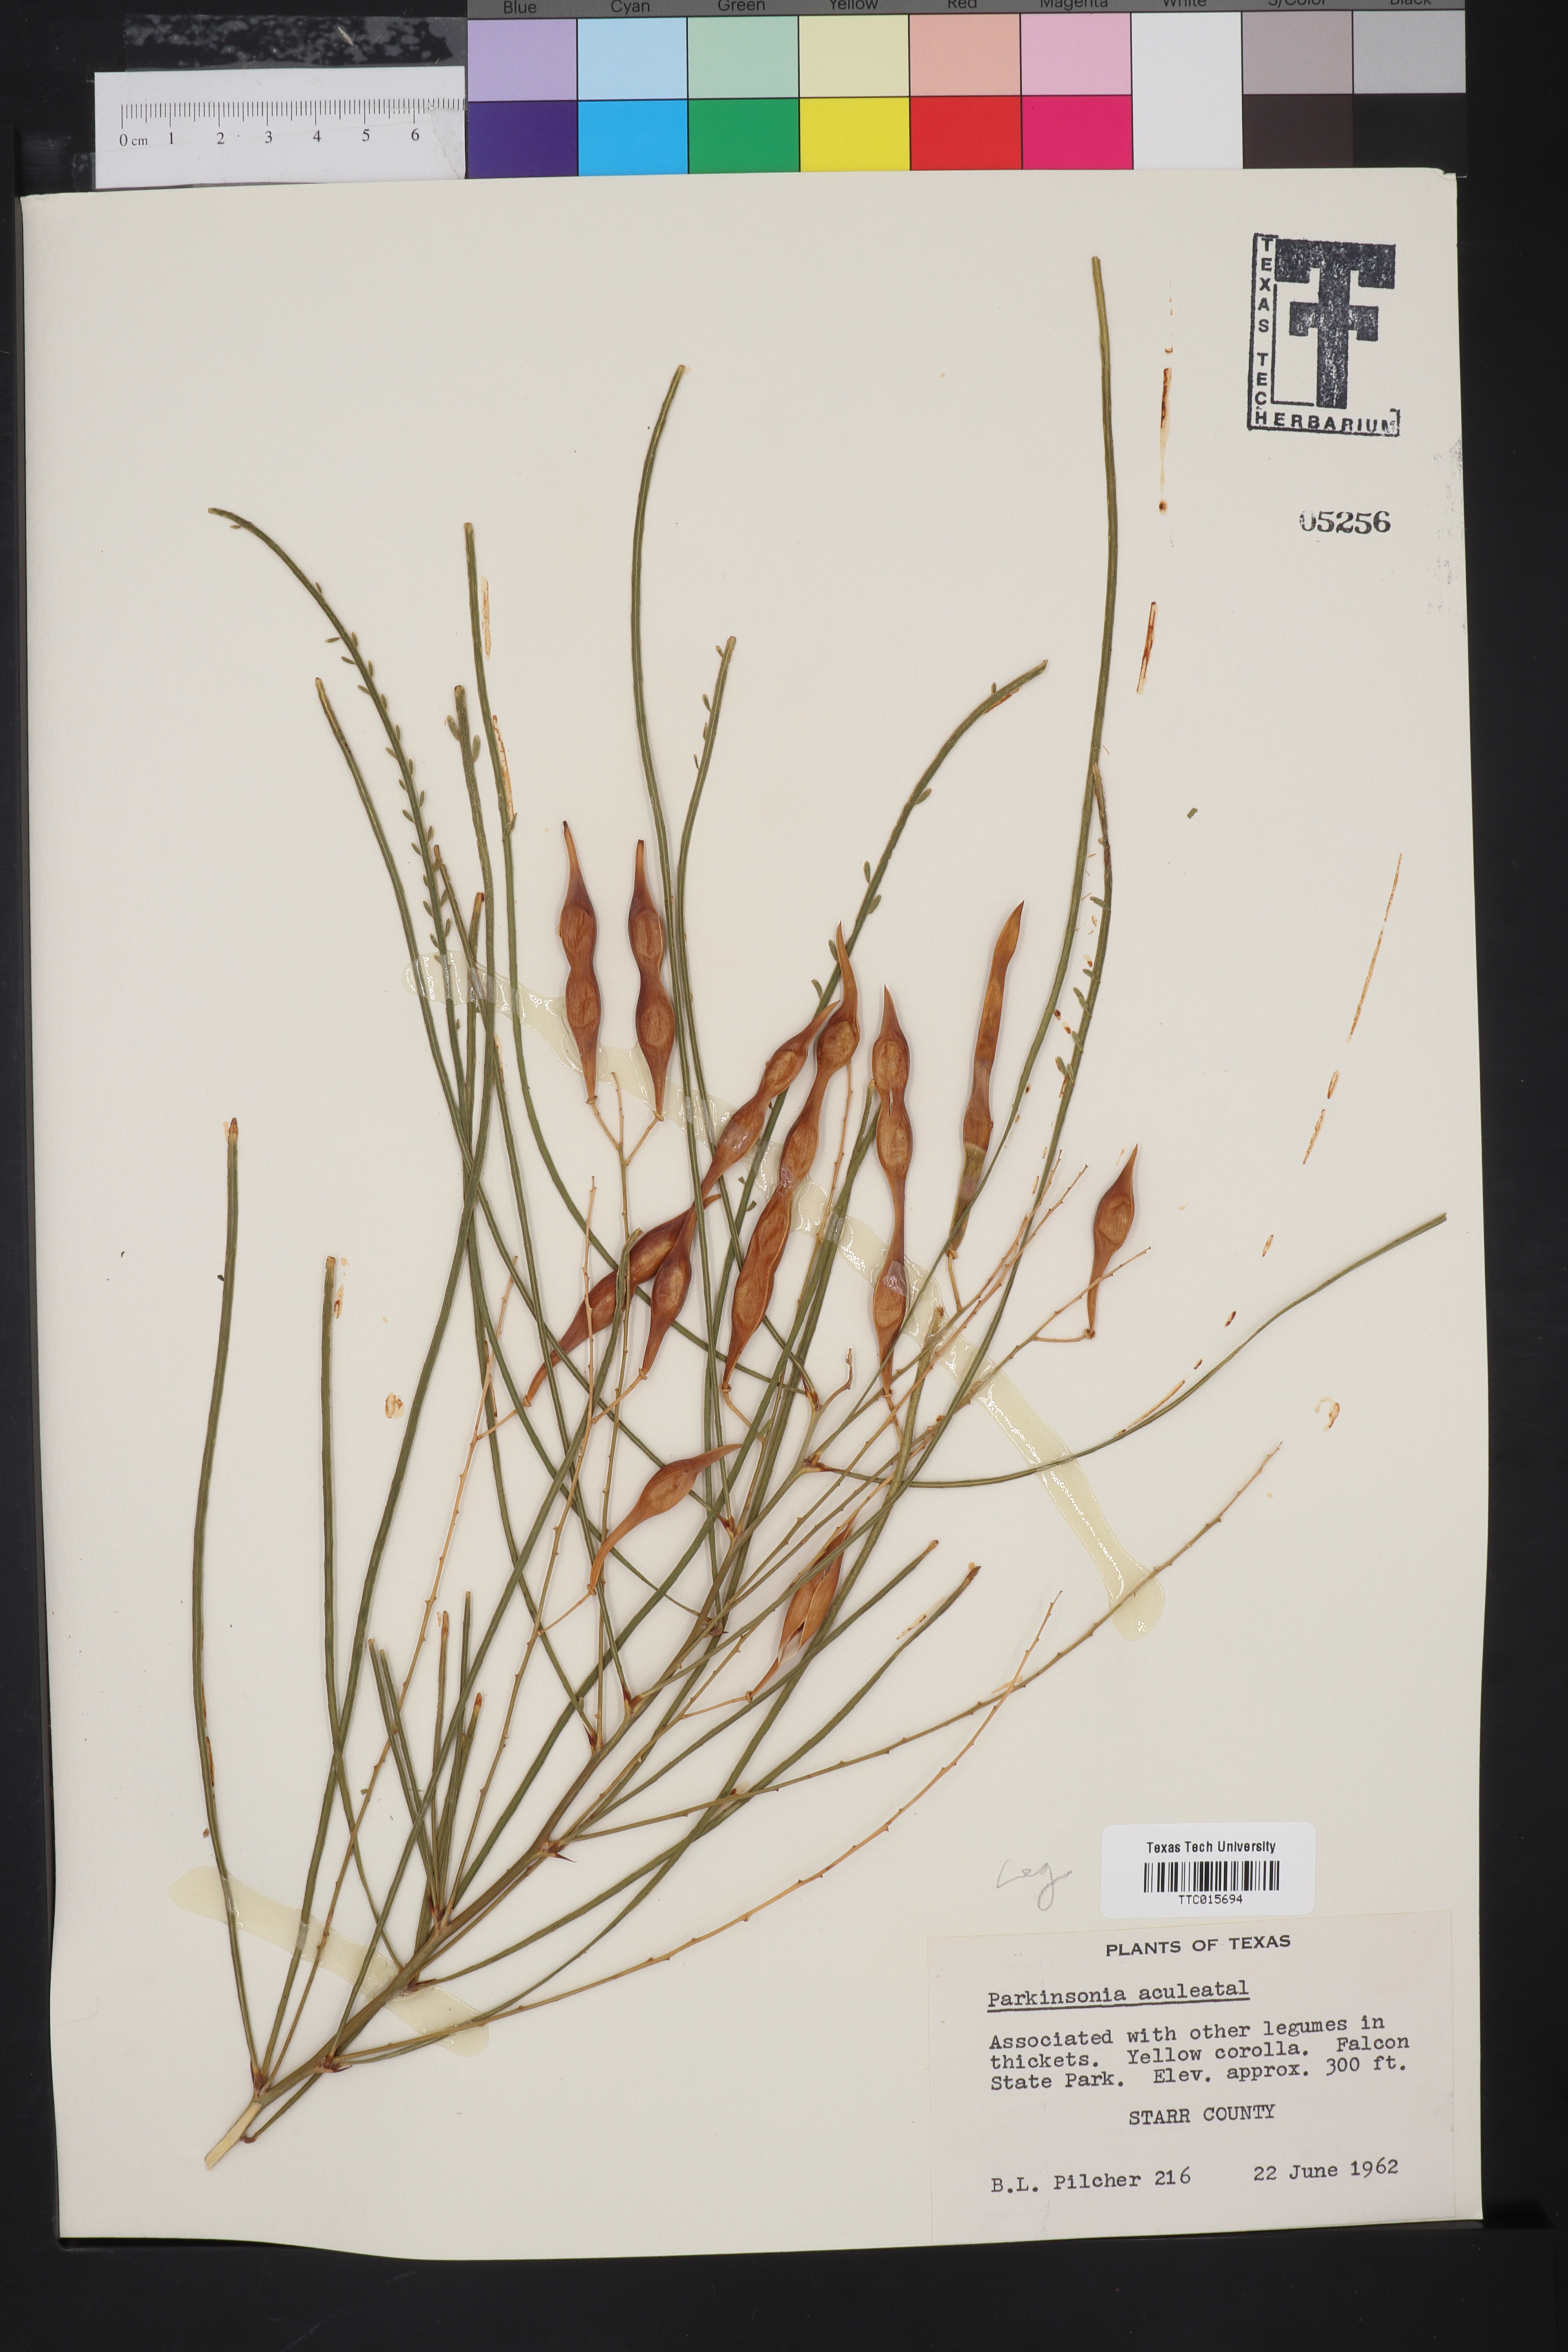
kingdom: Plantae
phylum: Tracheophyta
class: Magnoliopsida
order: Fabales
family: Fabaceae
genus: Parkinsonia
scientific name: Parkinsonia aculeata
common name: Jerusalem thorn
